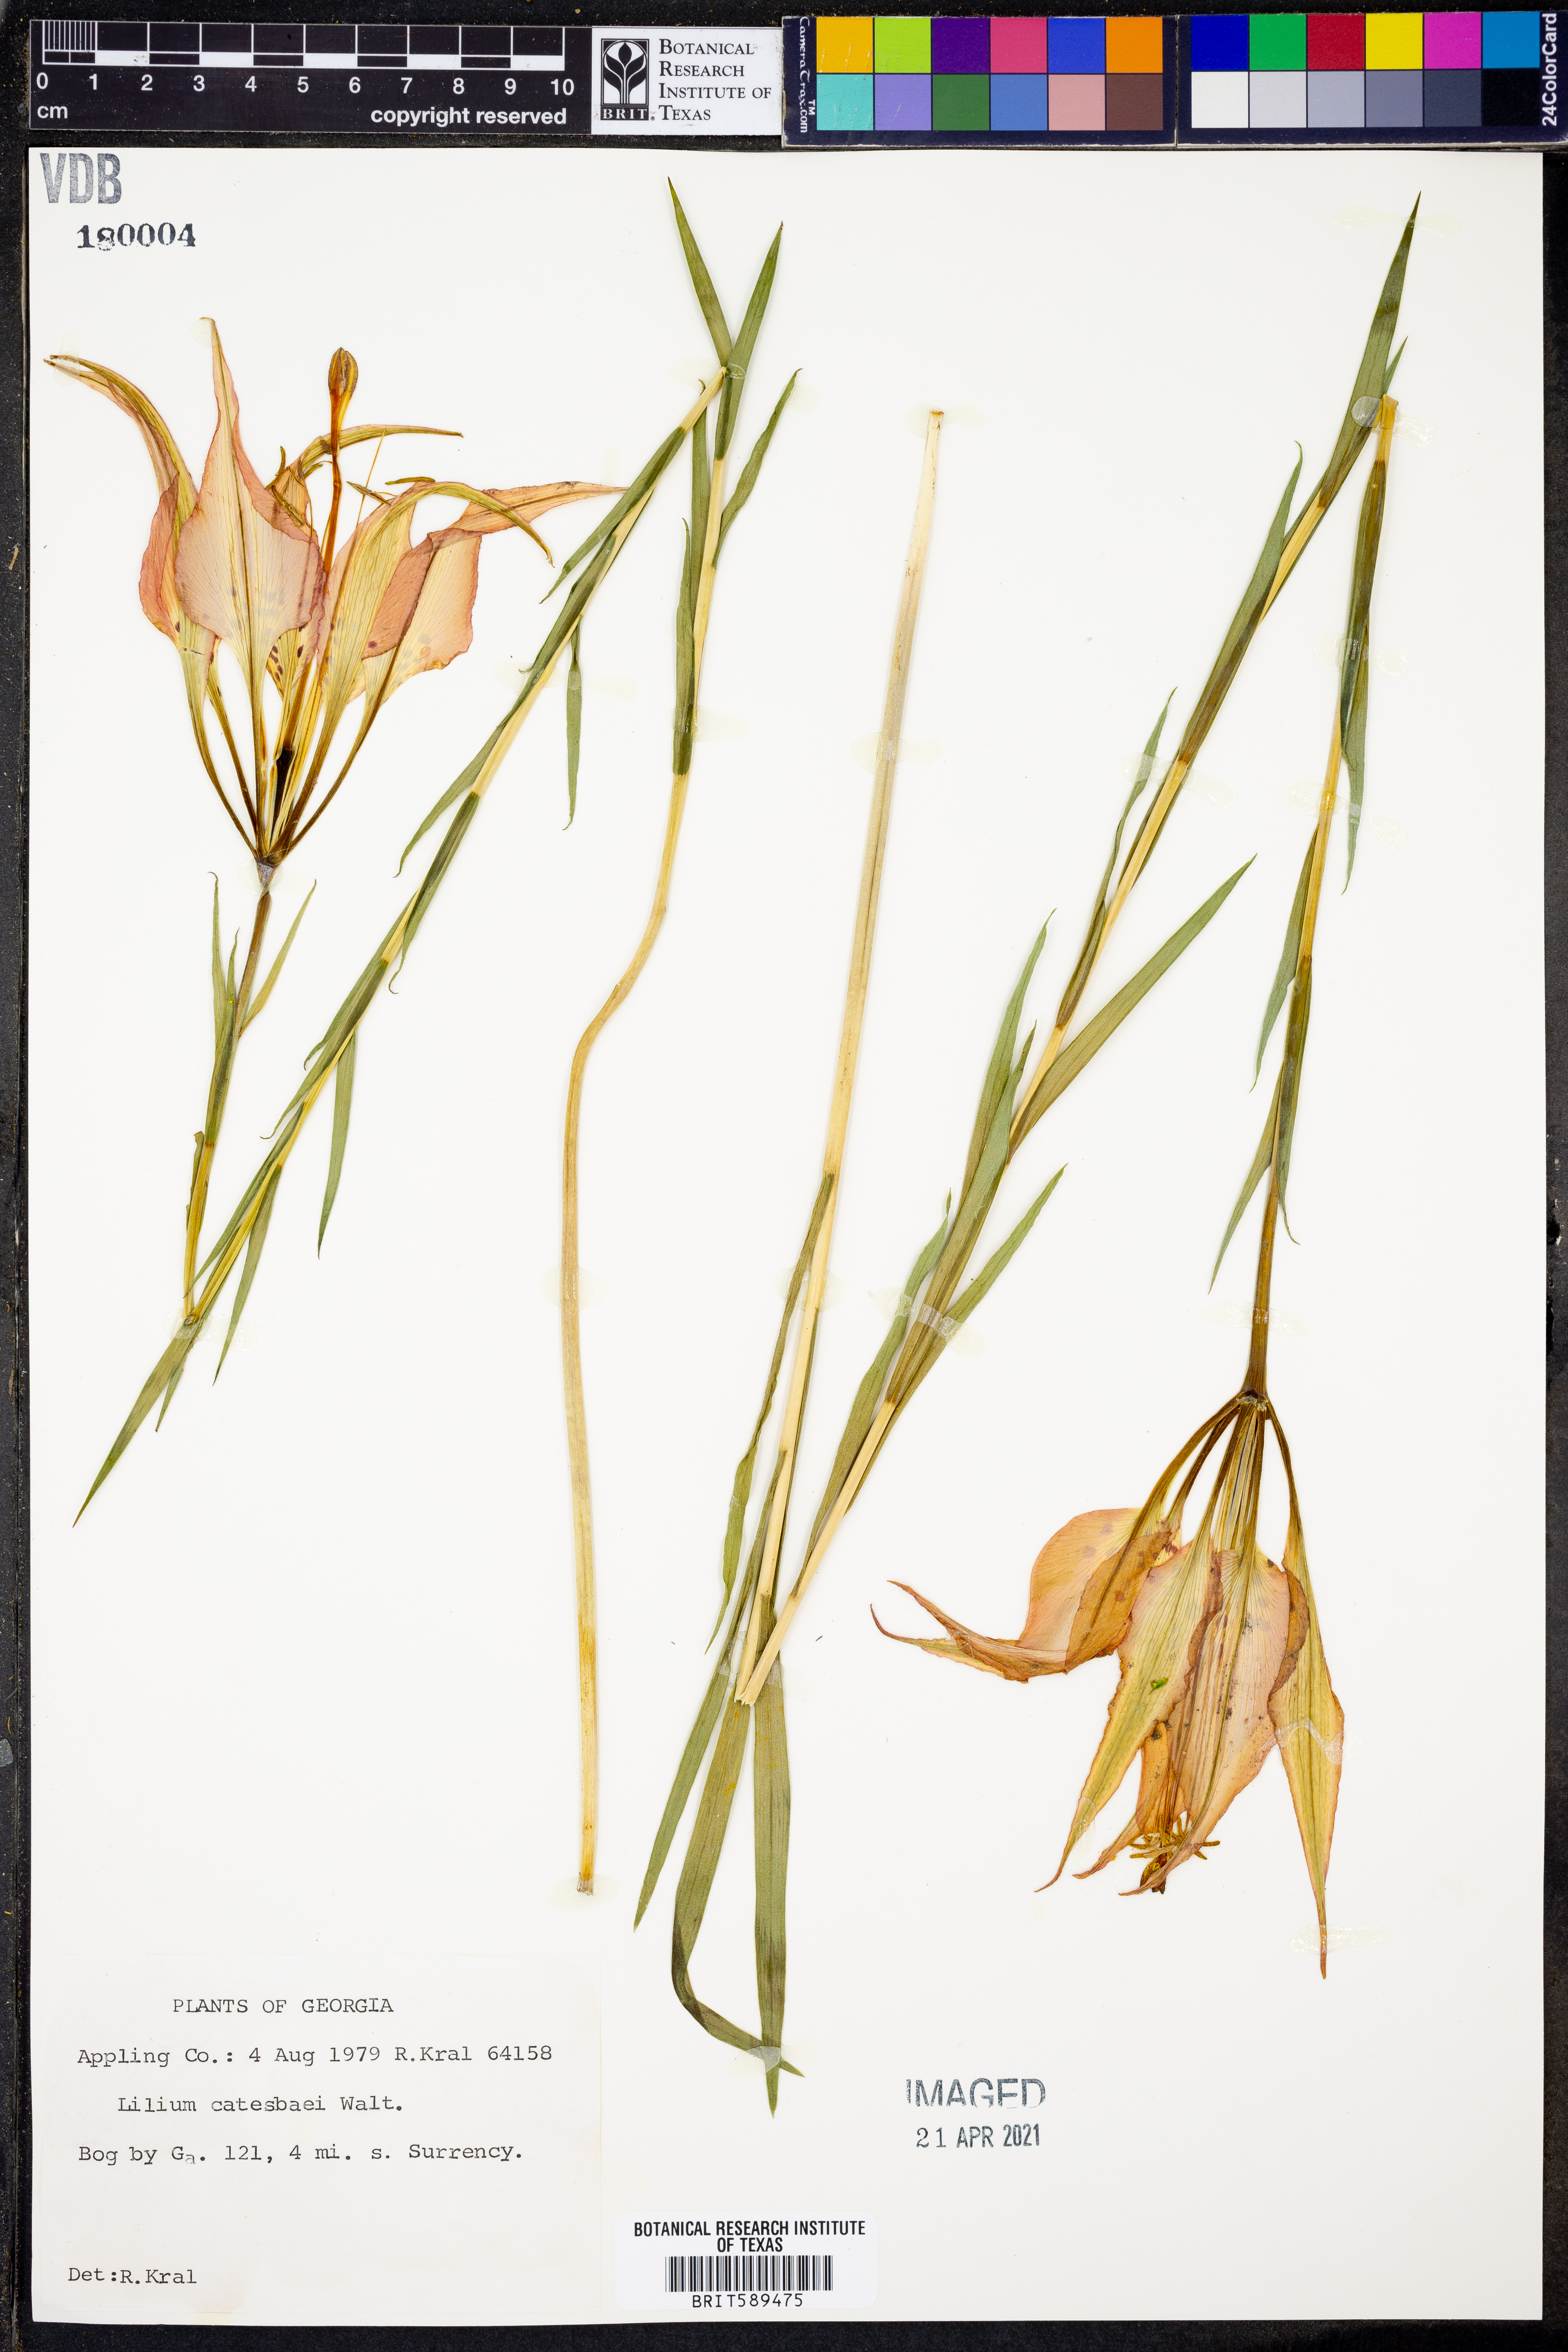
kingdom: Plantae
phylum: Tracheophyta
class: Liliopsida
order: Liliales
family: Liliaceae
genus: Lilium
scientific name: Lilium catesbaei
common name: Catesby's lily
